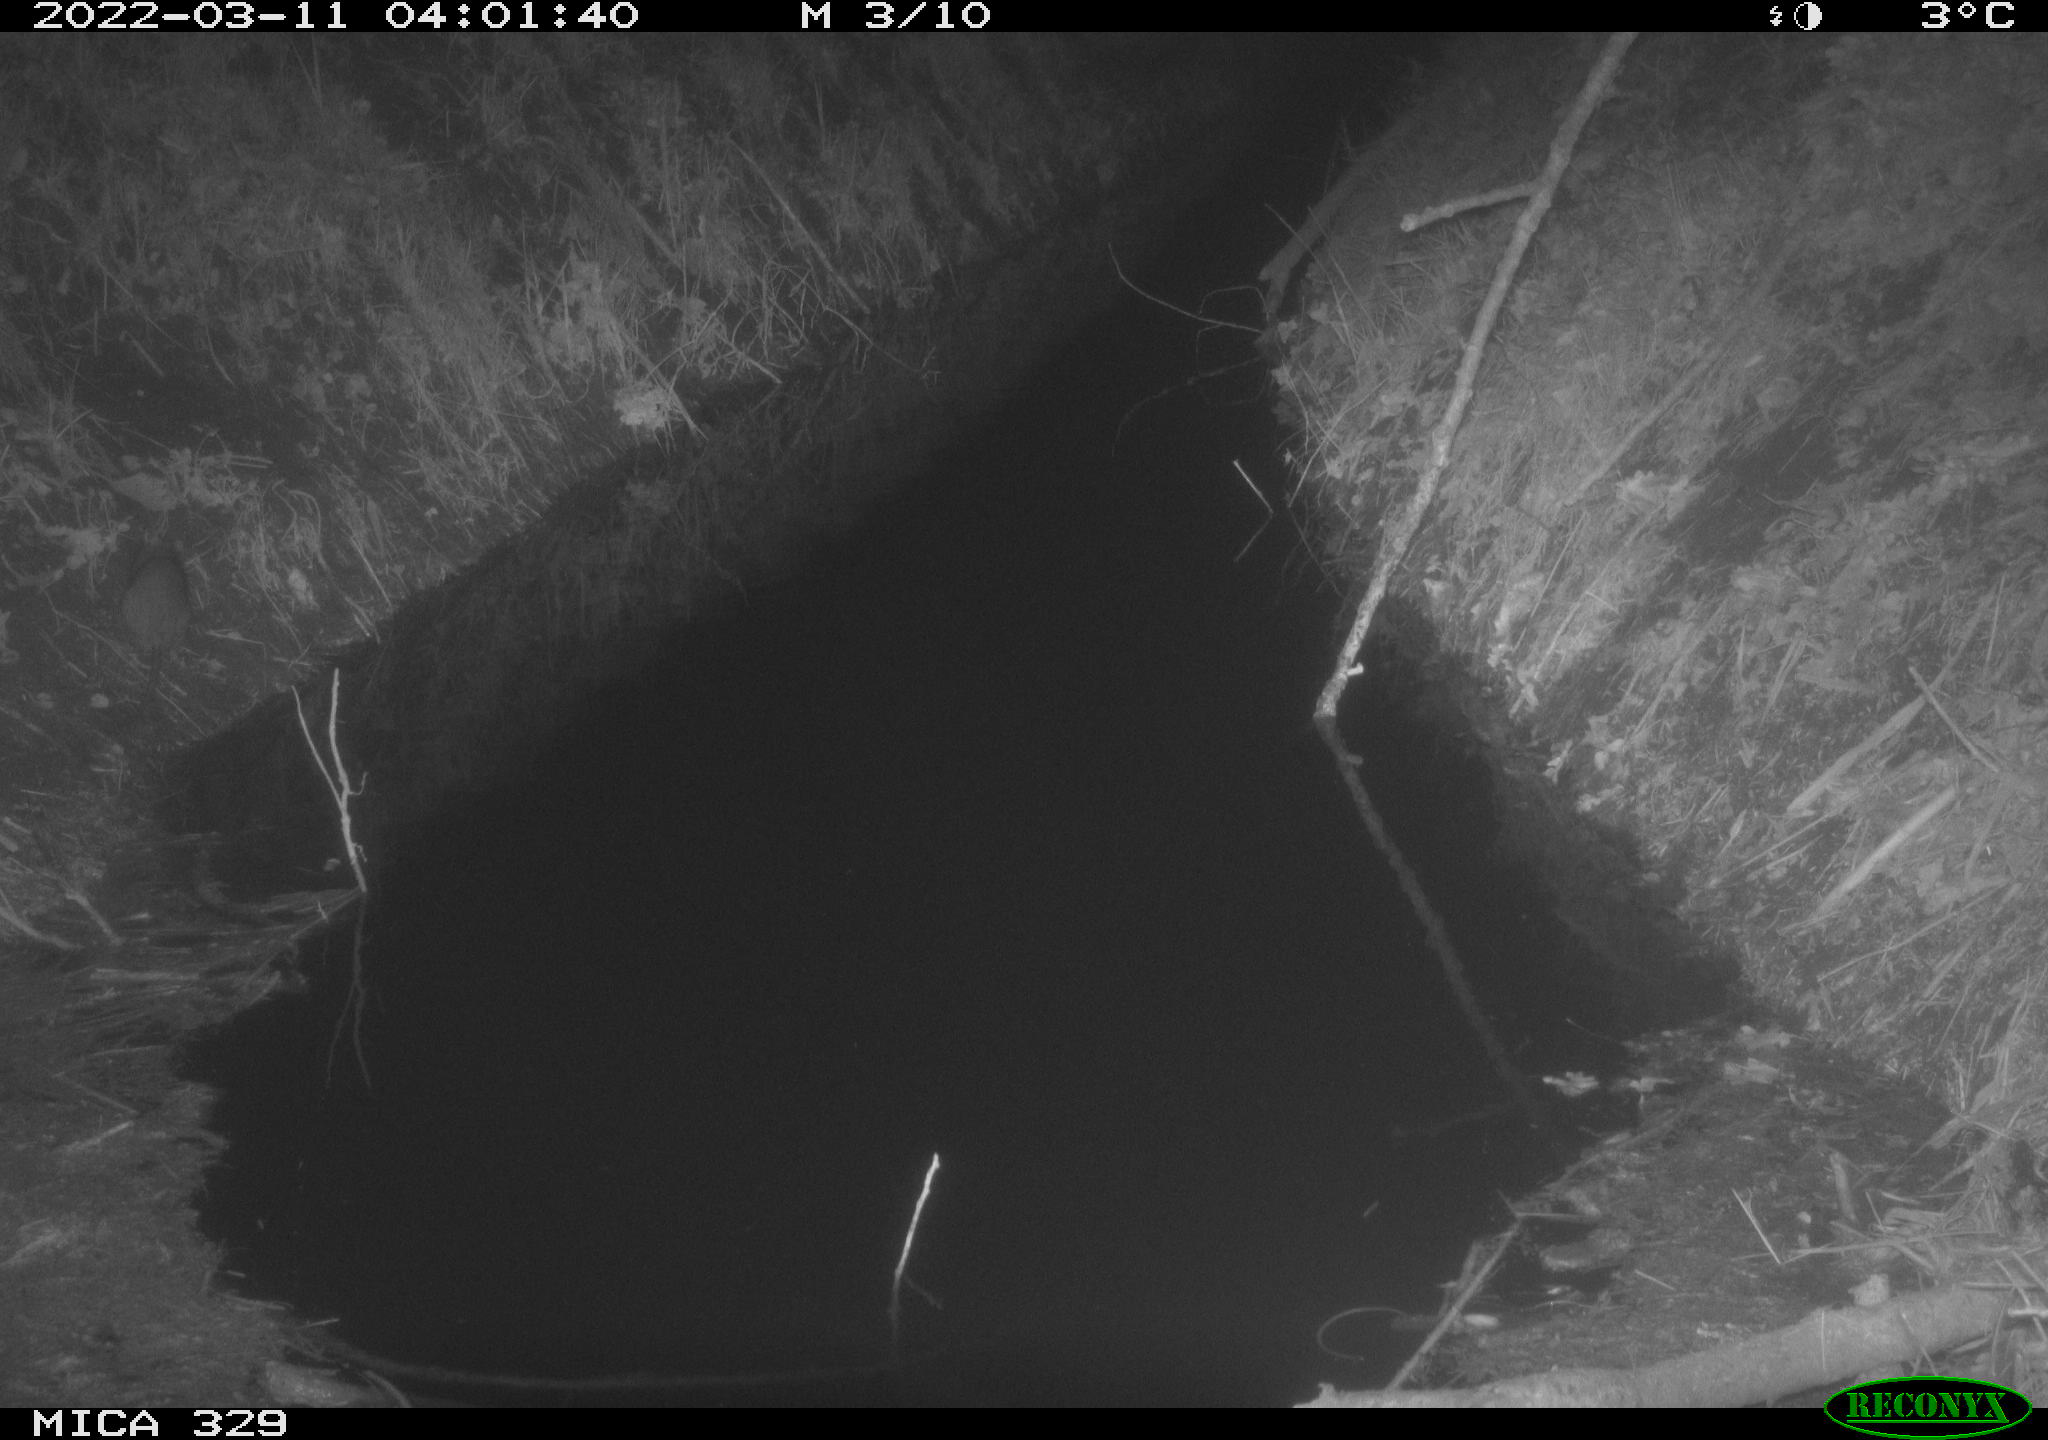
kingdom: Animalia
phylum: Chordata
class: Mammalia
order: Rodentia
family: Muridae
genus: Rattus
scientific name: Rattus norvegicus
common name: Brown rat
